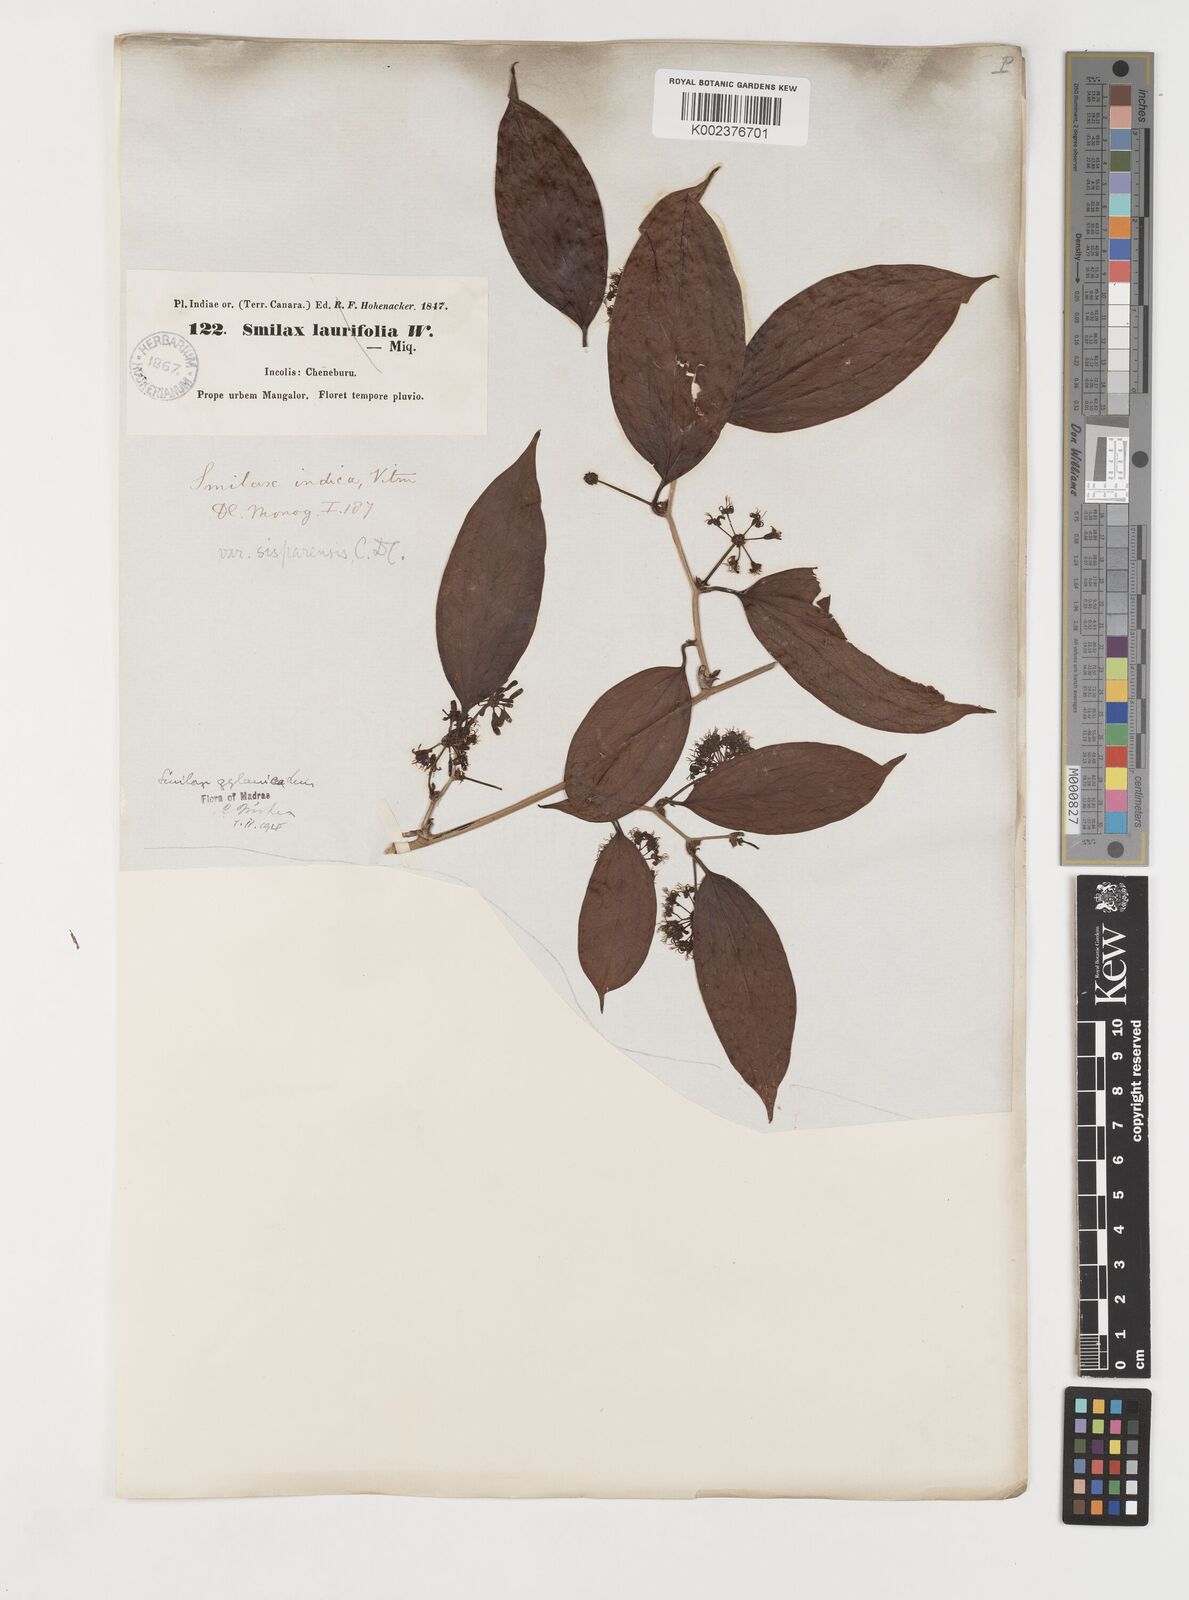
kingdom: Plantae
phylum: Tracheophyta
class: Liliopsida
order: Liliales
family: Smilacaceae
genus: Smilax
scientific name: Smilax zeylanica
